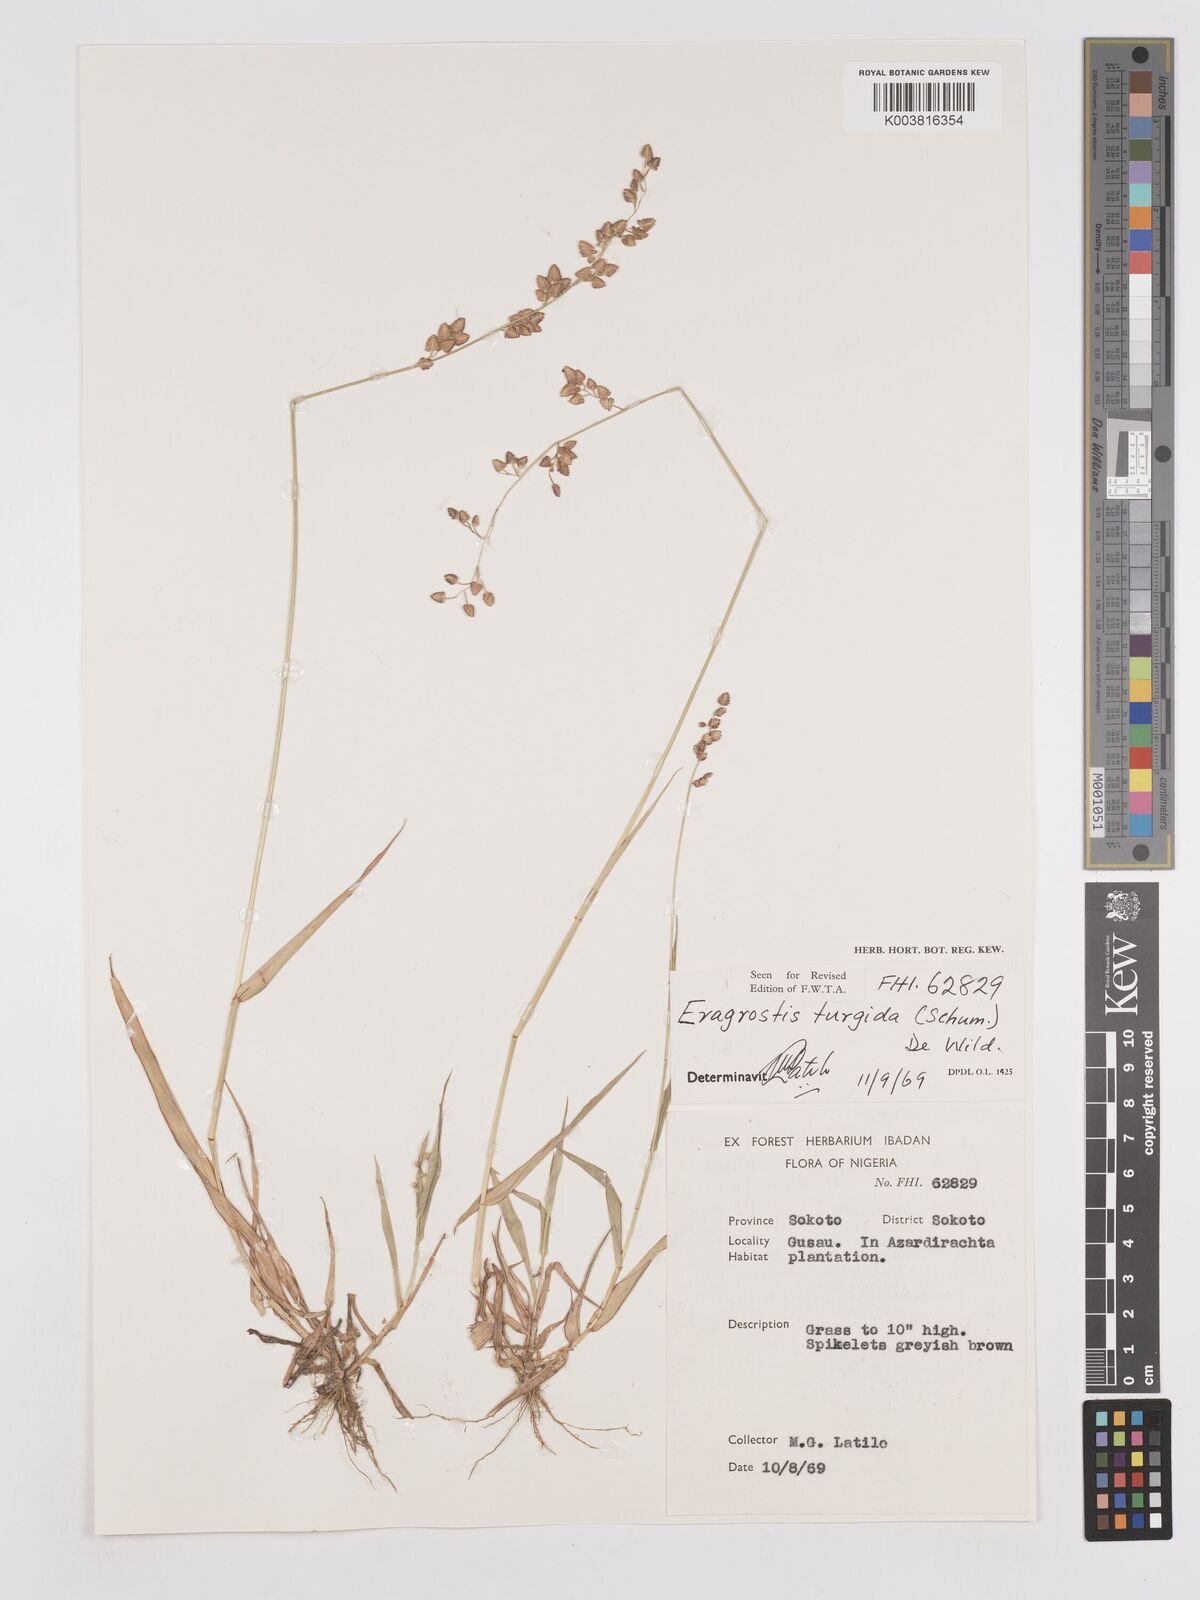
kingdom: Plantae
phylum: Tracheophyta
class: Liliopsida
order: Poales
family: Poaceae
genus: Eragrostis
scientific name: Eragrostis turgida
